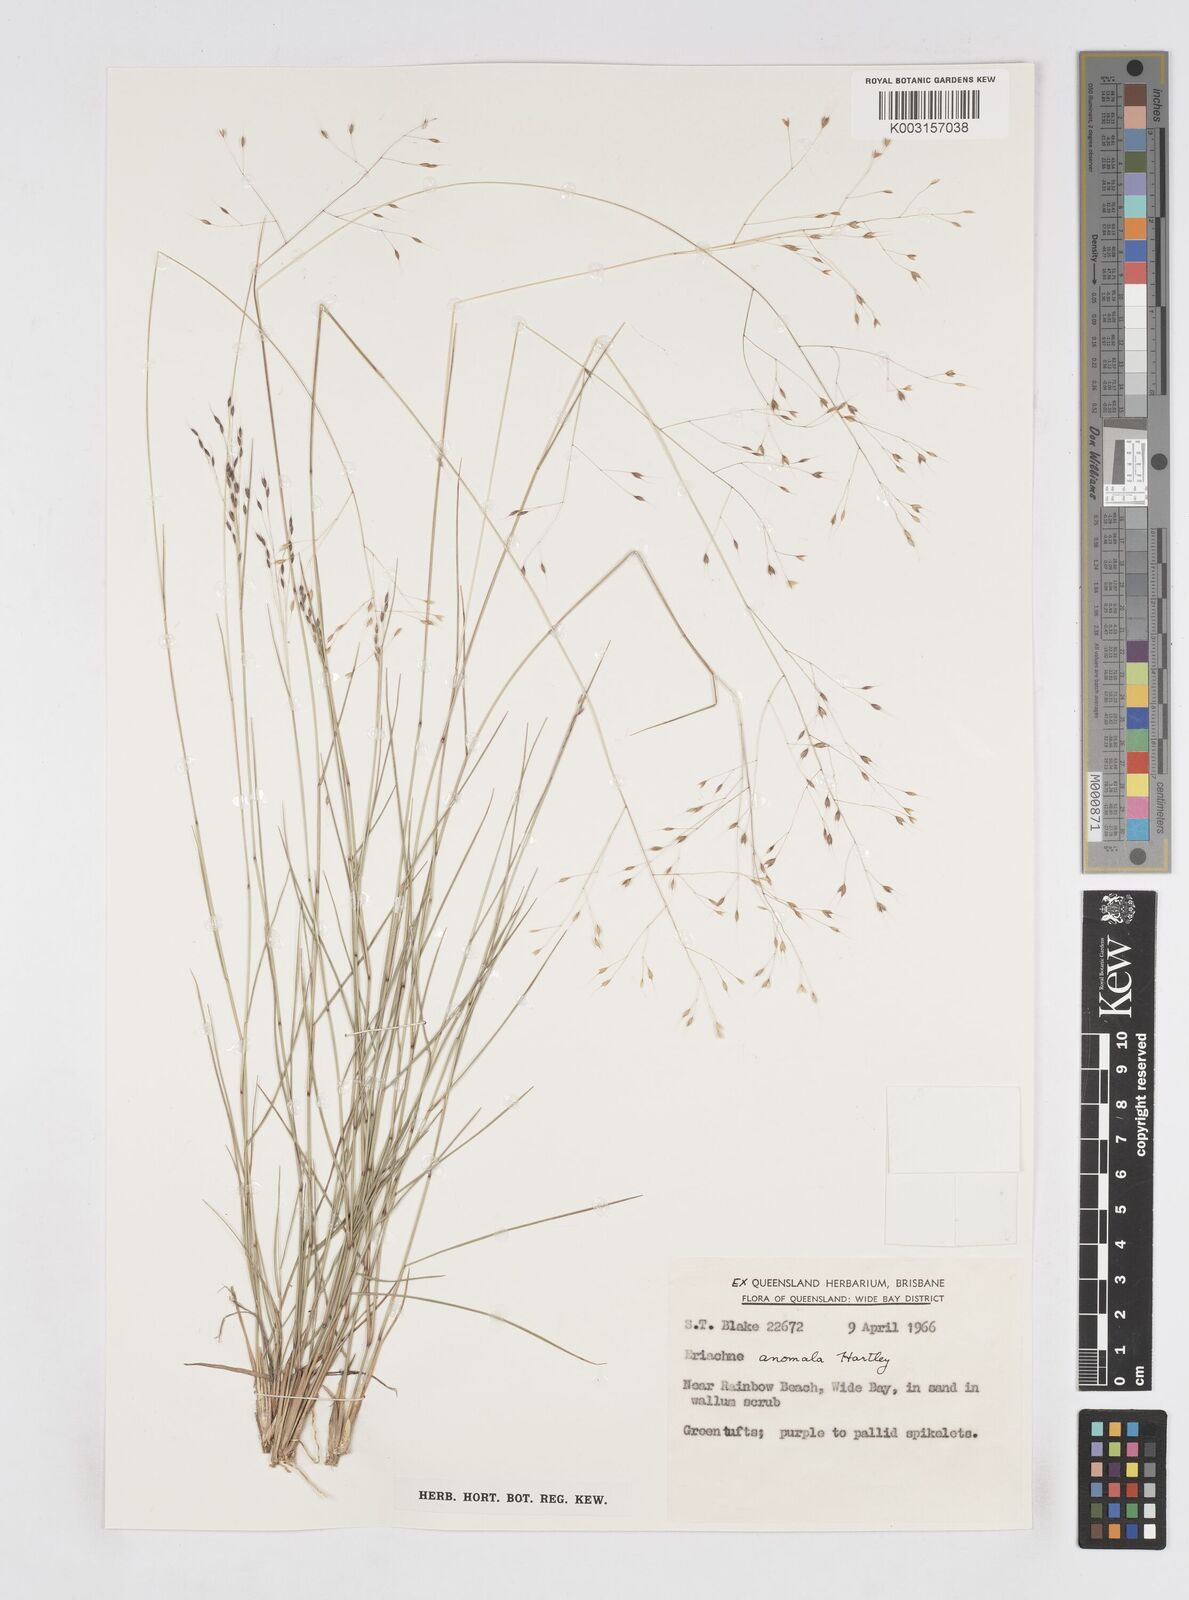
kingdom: Plantae
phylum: Tracheophyta
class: Liliopsida
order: Poales
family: Poaceae
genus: Eriachne
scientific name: Eriachne pallescens
